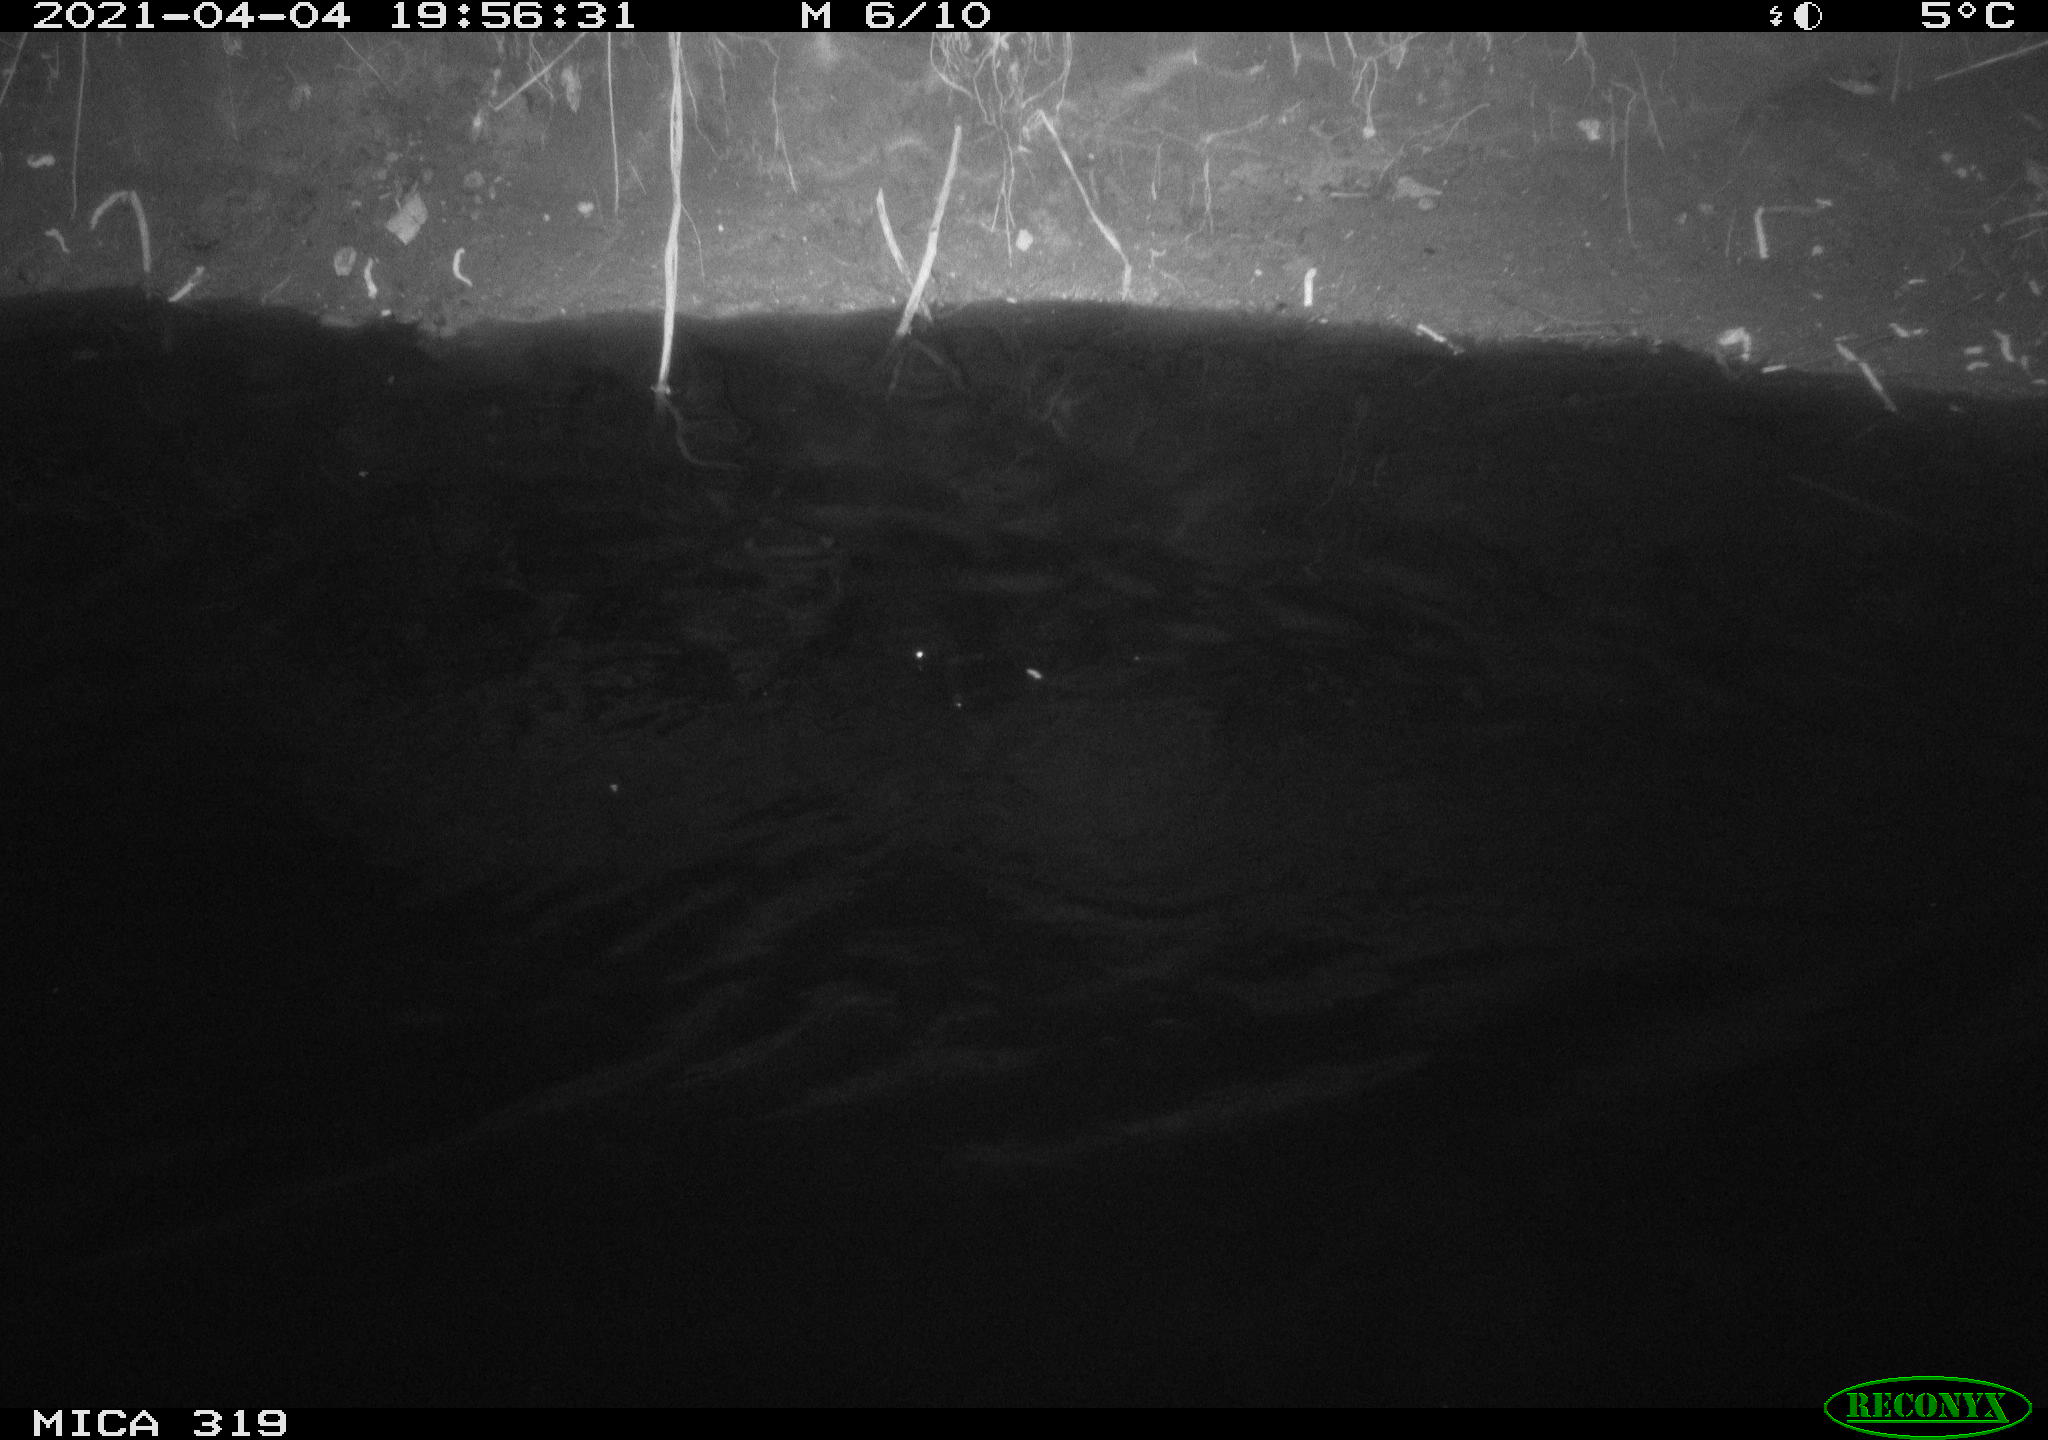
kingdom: Animalia
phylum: Chordata
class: Aves
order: Anseriformes
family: Anatidae
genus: Anas
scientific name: Anas platyrhynchos
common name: Mallard
